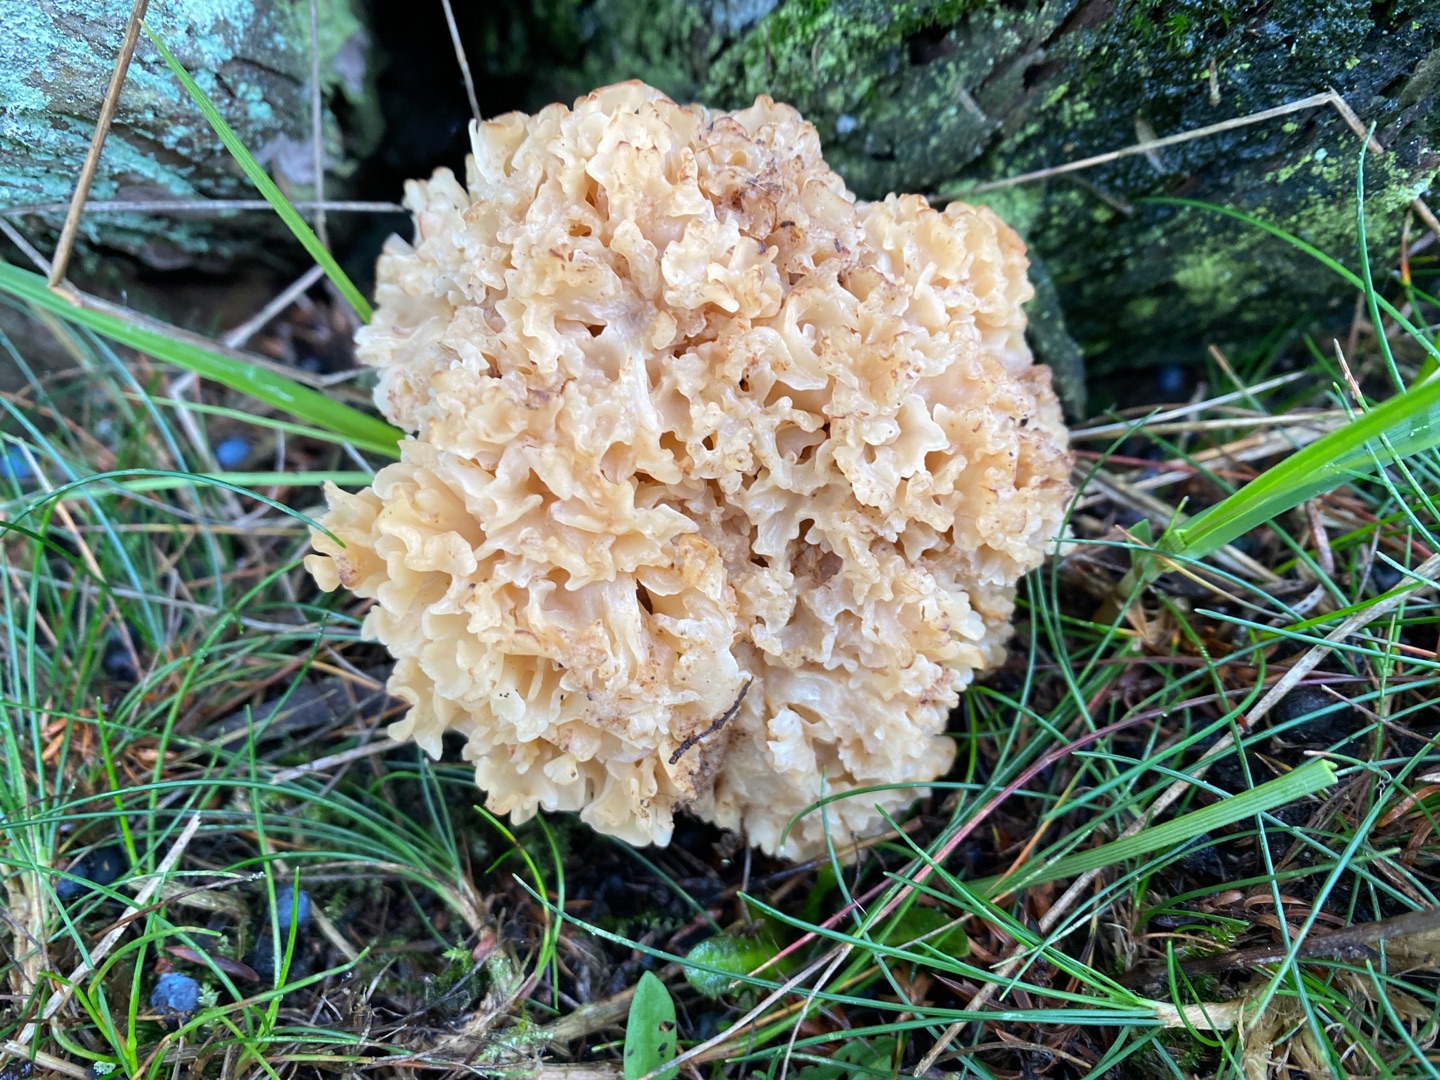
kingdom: Fungi
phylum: Basidiomycota
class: Agaricomycetes
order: Polyporales
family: Sparassidaceae
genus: Sparassis
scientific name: Sparassis crispa
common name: Kruset blomkålssvamp
